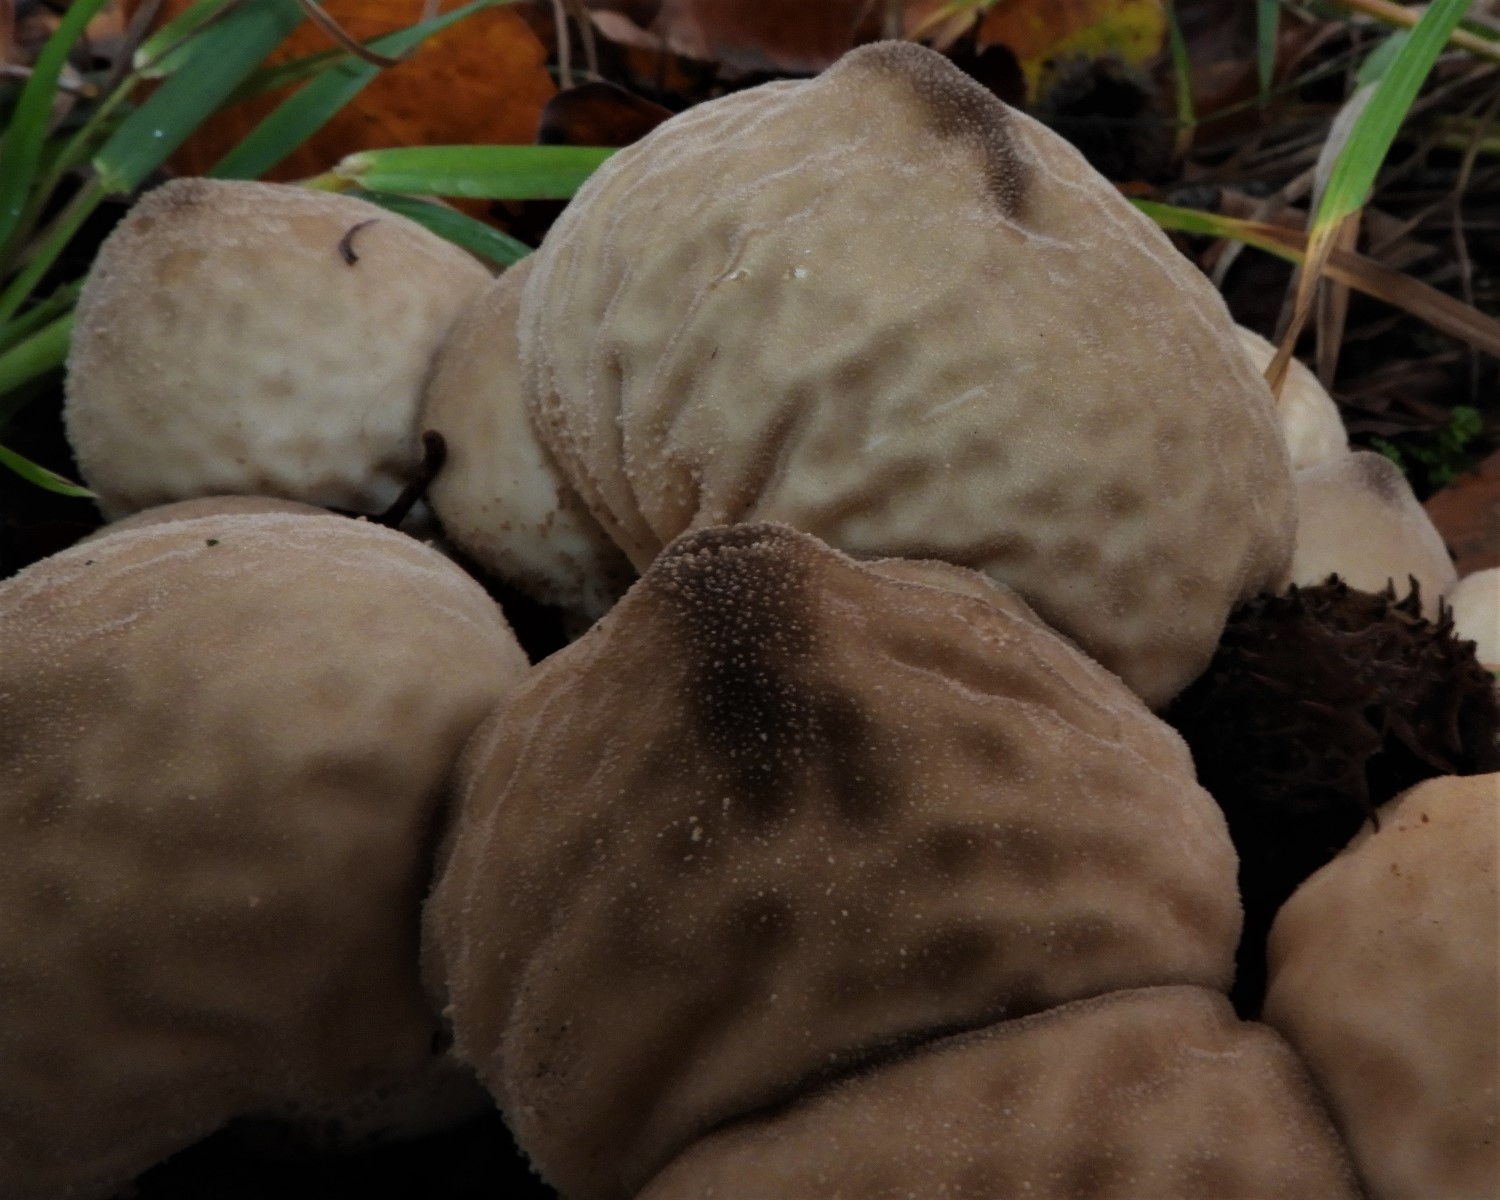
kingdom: Fungi
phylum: Basidiomycota
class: Agaricomycetes
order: Agaricales
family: Lycoperdaceae
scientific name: Lycoperdaceae
